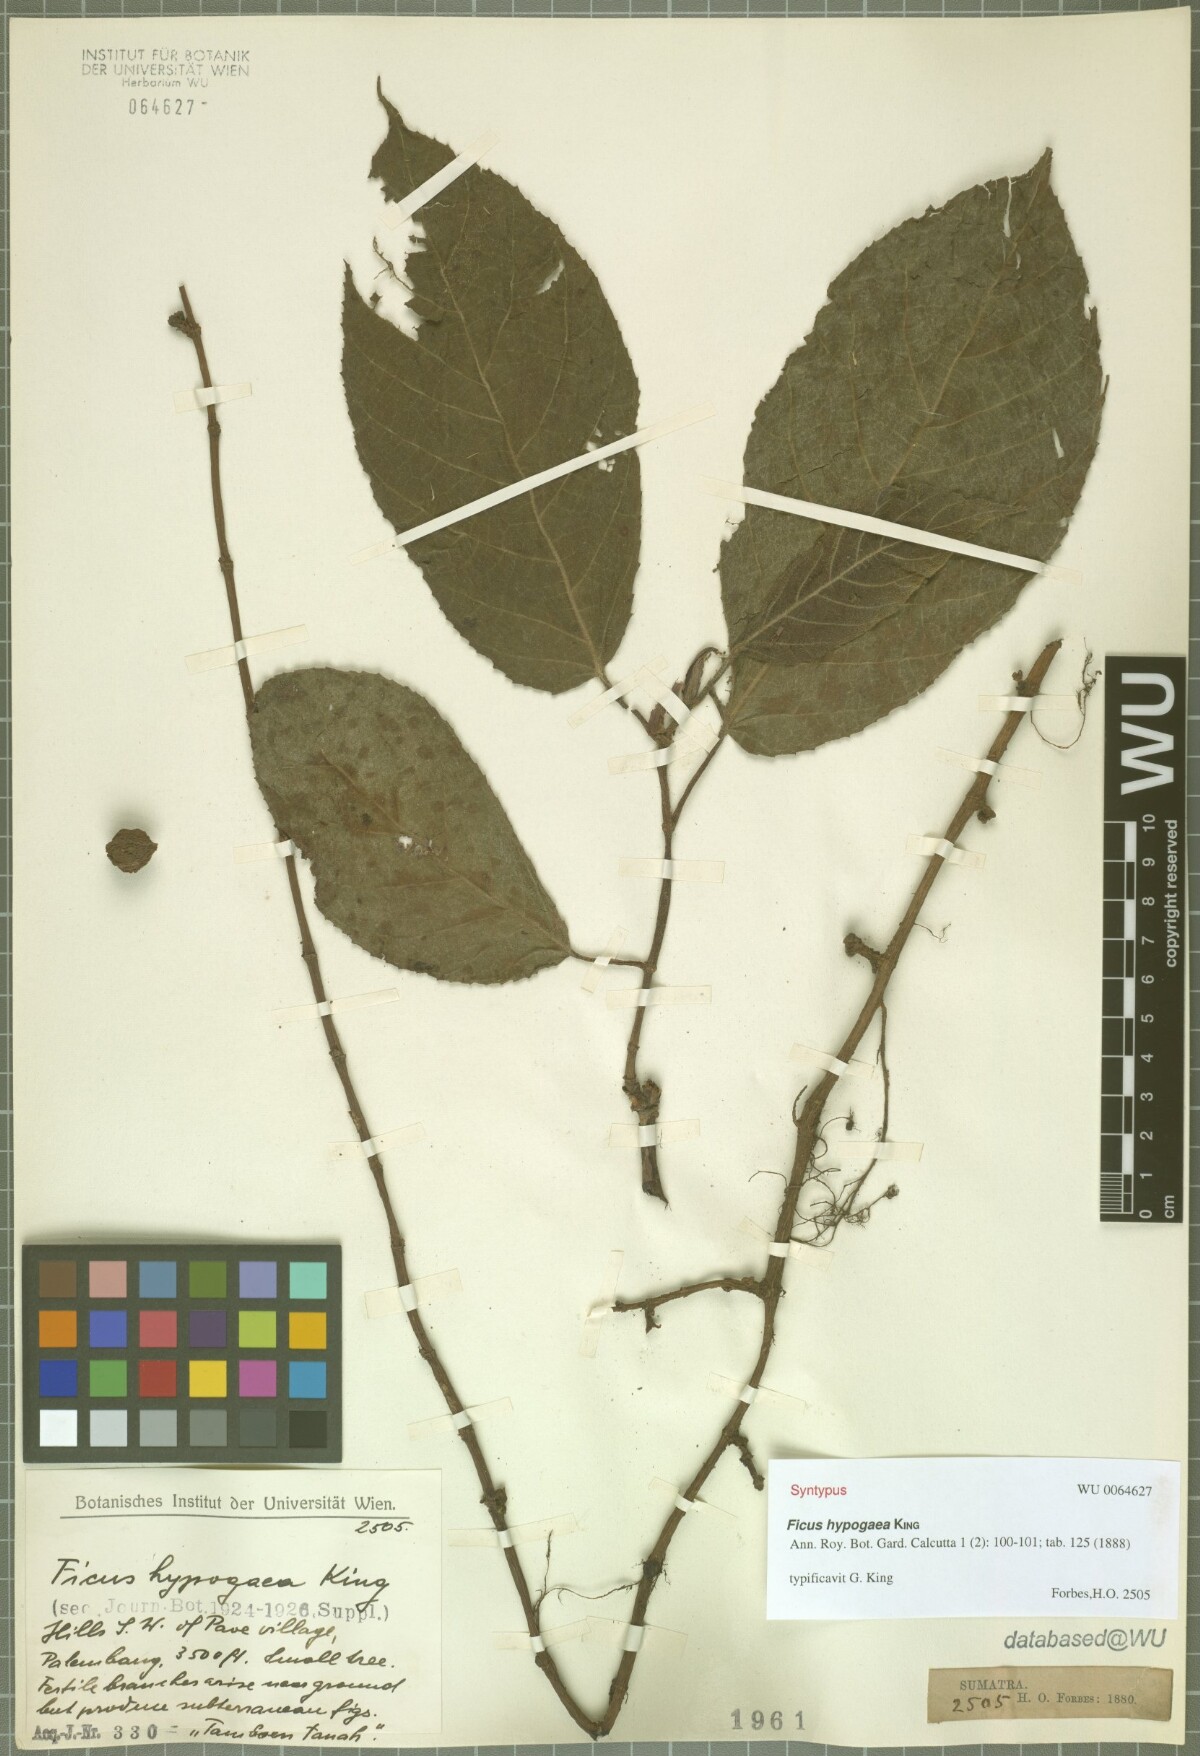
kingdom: Plantae
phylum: Tracheophyta
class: Magnoliopsida
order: Rosales
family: Moraceae
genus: Ficus
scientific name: Ficus hypogaea
